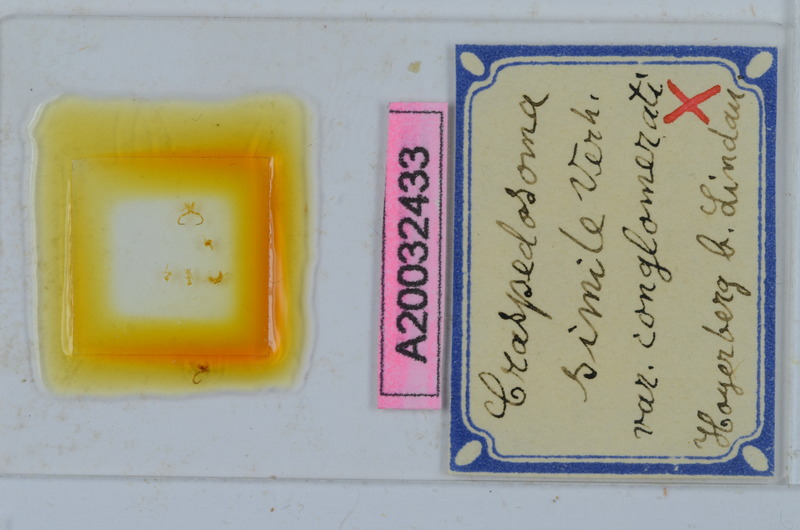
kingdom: Animalia
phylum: Arthropoda
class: Diplopoda
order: Chordeumatida
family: Craspedosomatidae
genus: Craspedosoma
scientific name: Craspedosoma rawlinsii
